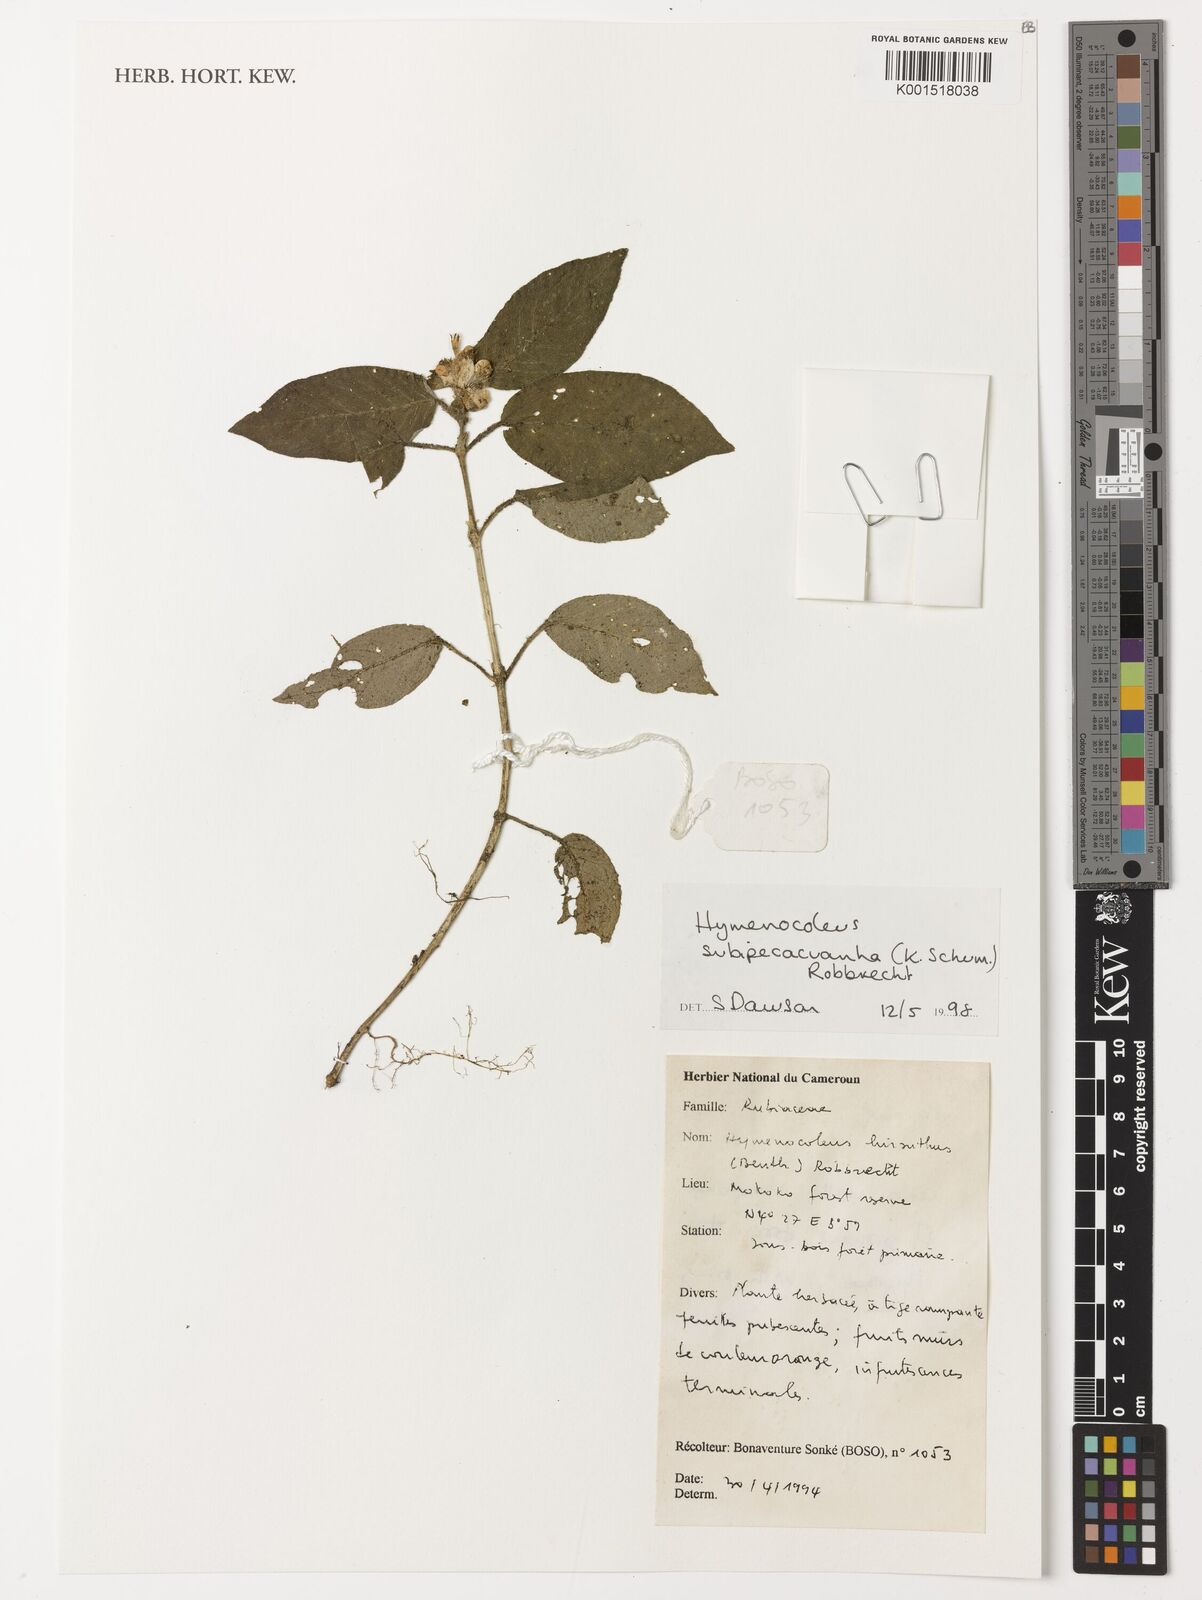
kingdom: Plantae
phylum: Tracheophyta
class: Magnoliopsida
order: Gentianales
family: Rubiaceae
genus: Hymenocoleus
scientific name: Hymenocoleus subipecacuanha
